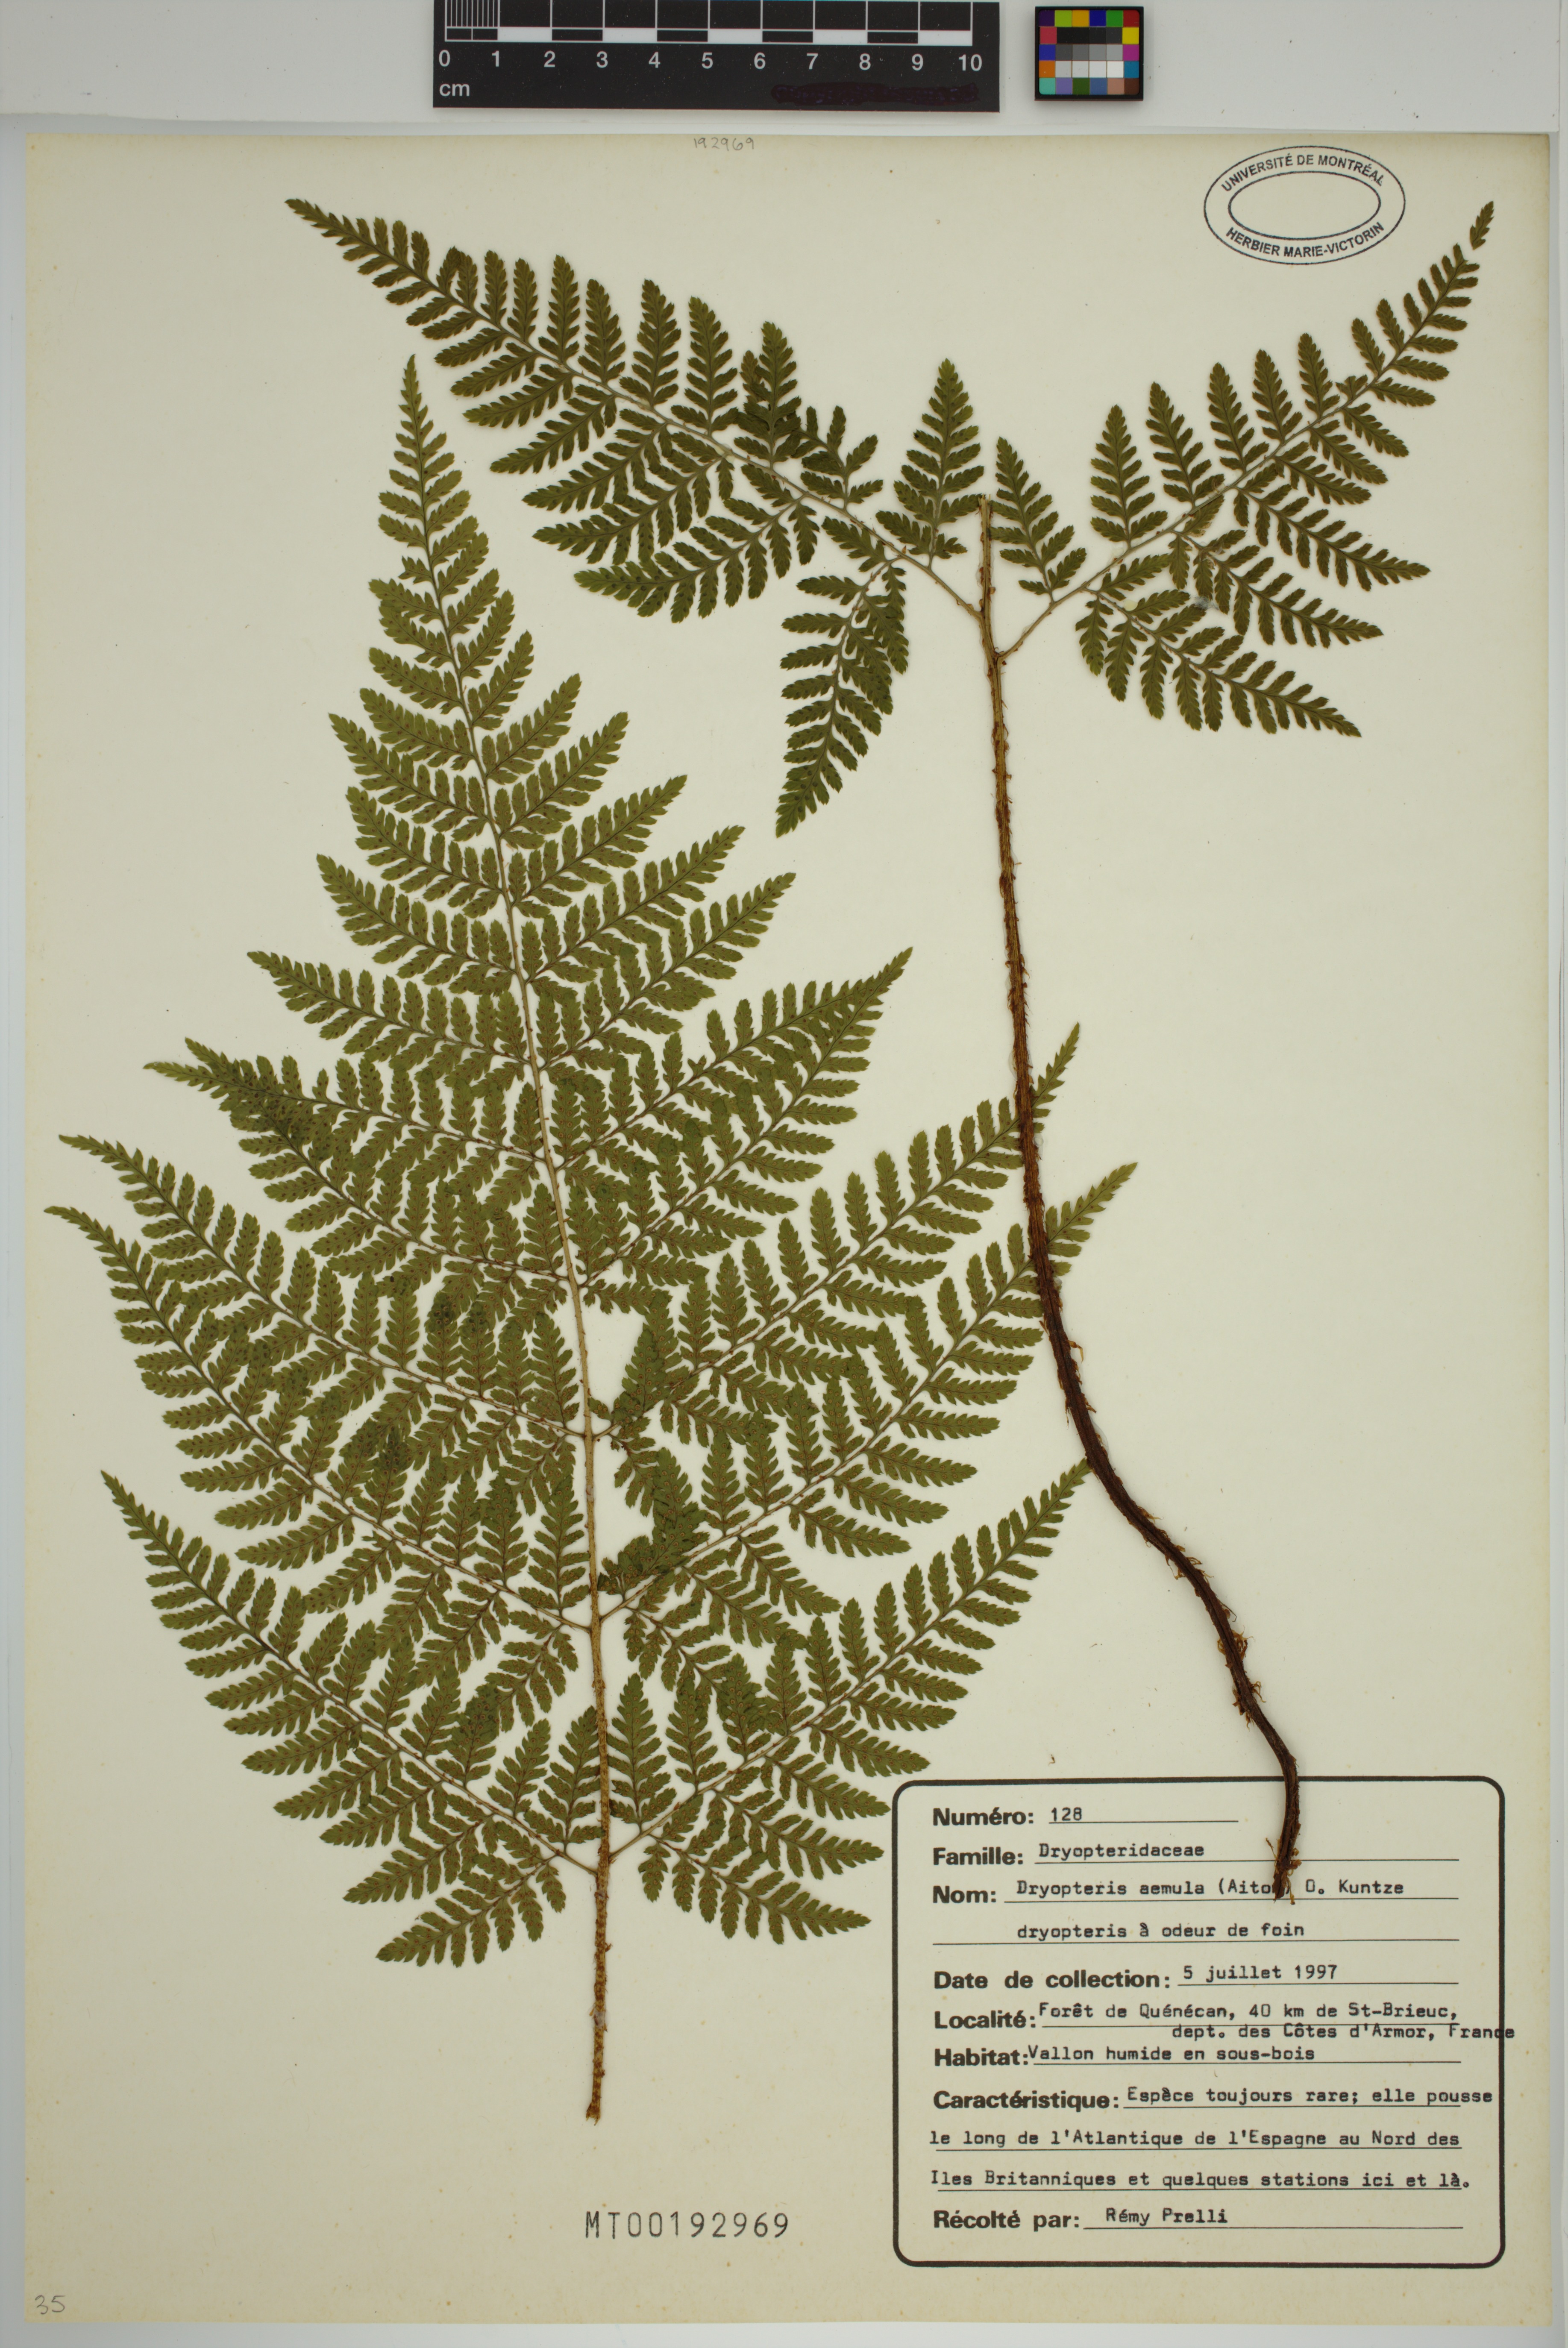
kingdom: Plantae
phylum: Tracheophyta
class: Polypodiopsida
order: Polypodiales
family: Dryopteridaceae
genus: Dryopteris
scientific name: Dryopteris aemula
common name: Hay-scented buckler-fern
